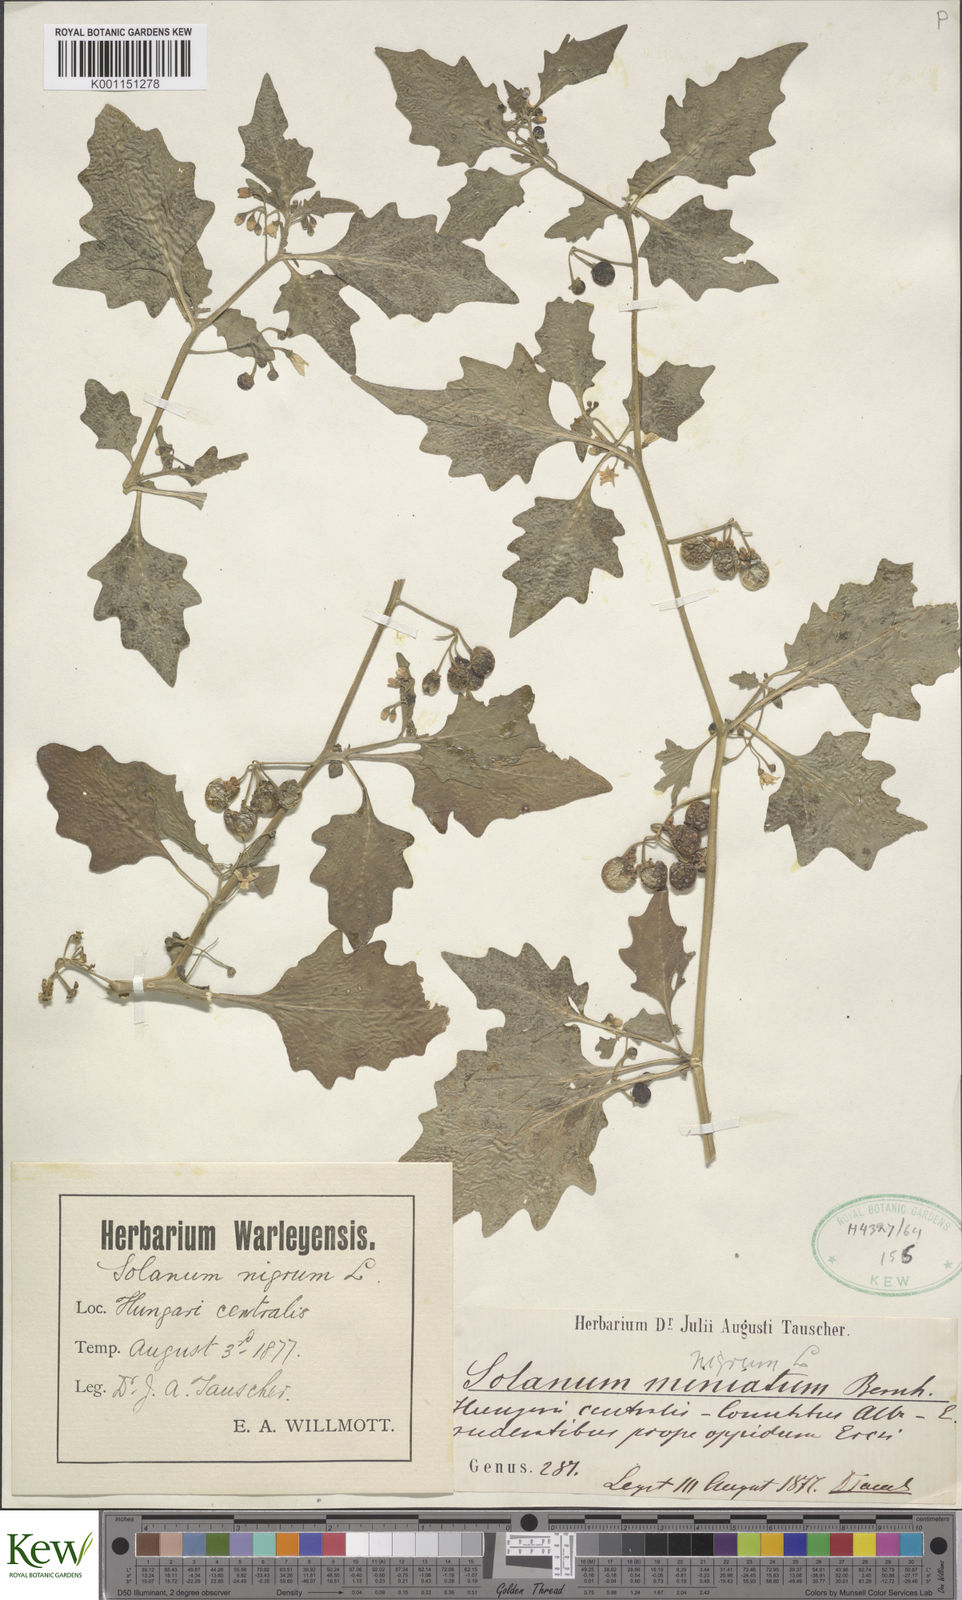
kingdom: Plantae
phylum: Tracheophyta
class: Magnoliopsida
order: Solanales
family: Solanaceae
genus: Solanum
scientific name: Solanum nigrum
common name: Black nightshade
